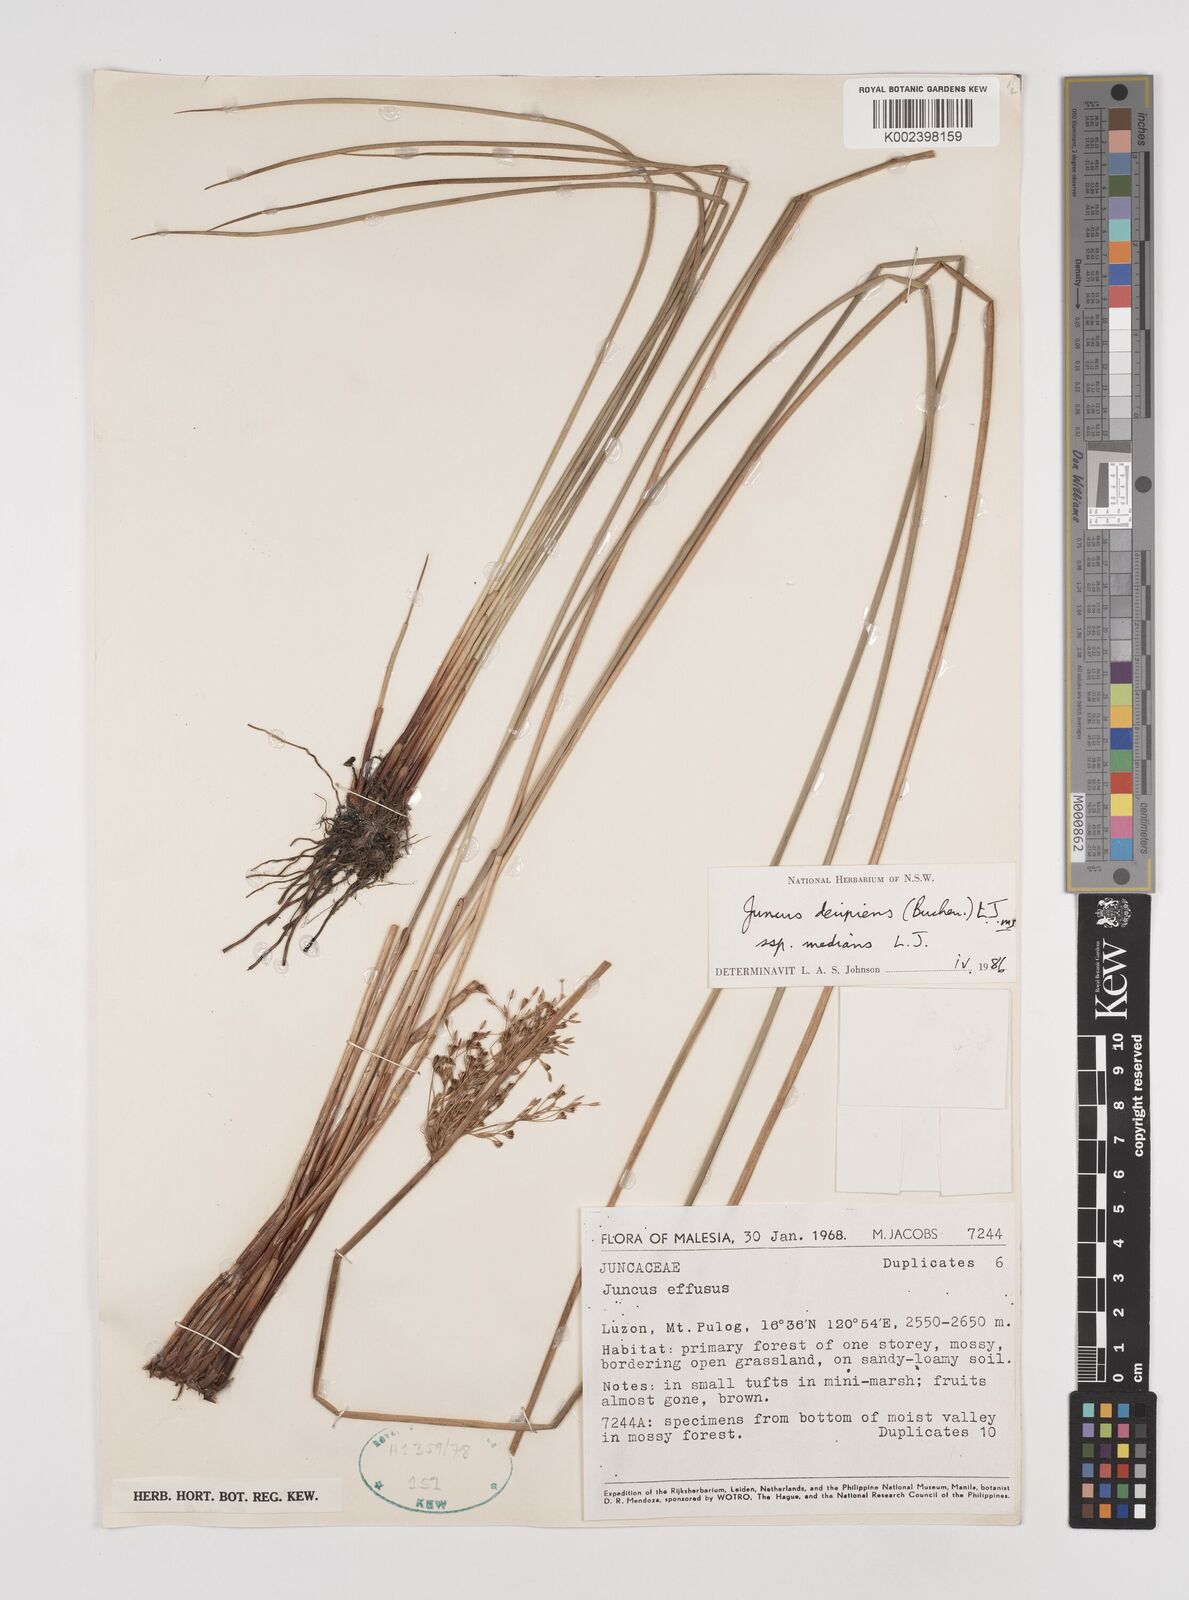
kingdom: Plantae
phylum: Tracheophyta
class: Liliopsida
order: Poales
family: Juncaceae
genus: Juncus
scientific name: Juncus decipiens
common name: Lamp rush
